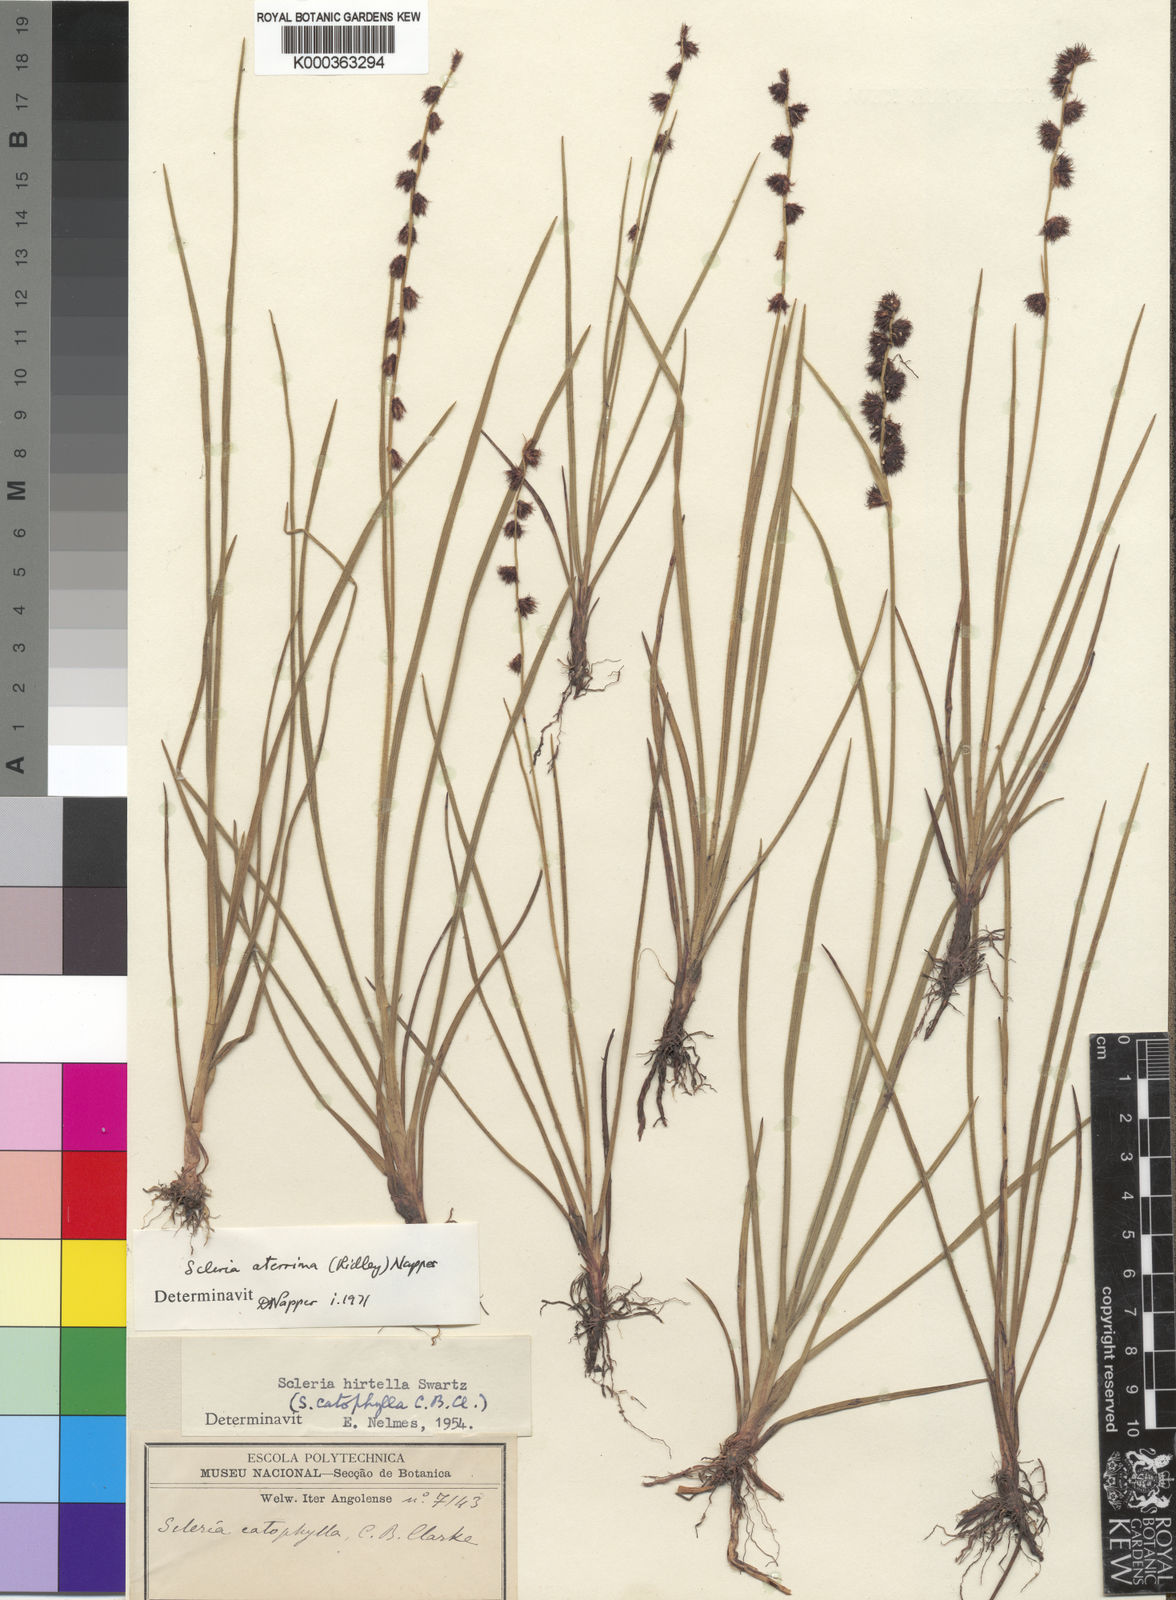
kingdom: Plantae
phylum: Tracheophyta
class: Liliopsida
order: Poales
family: Cyperaceae
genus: Scleria
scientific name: Scleria catophylla
